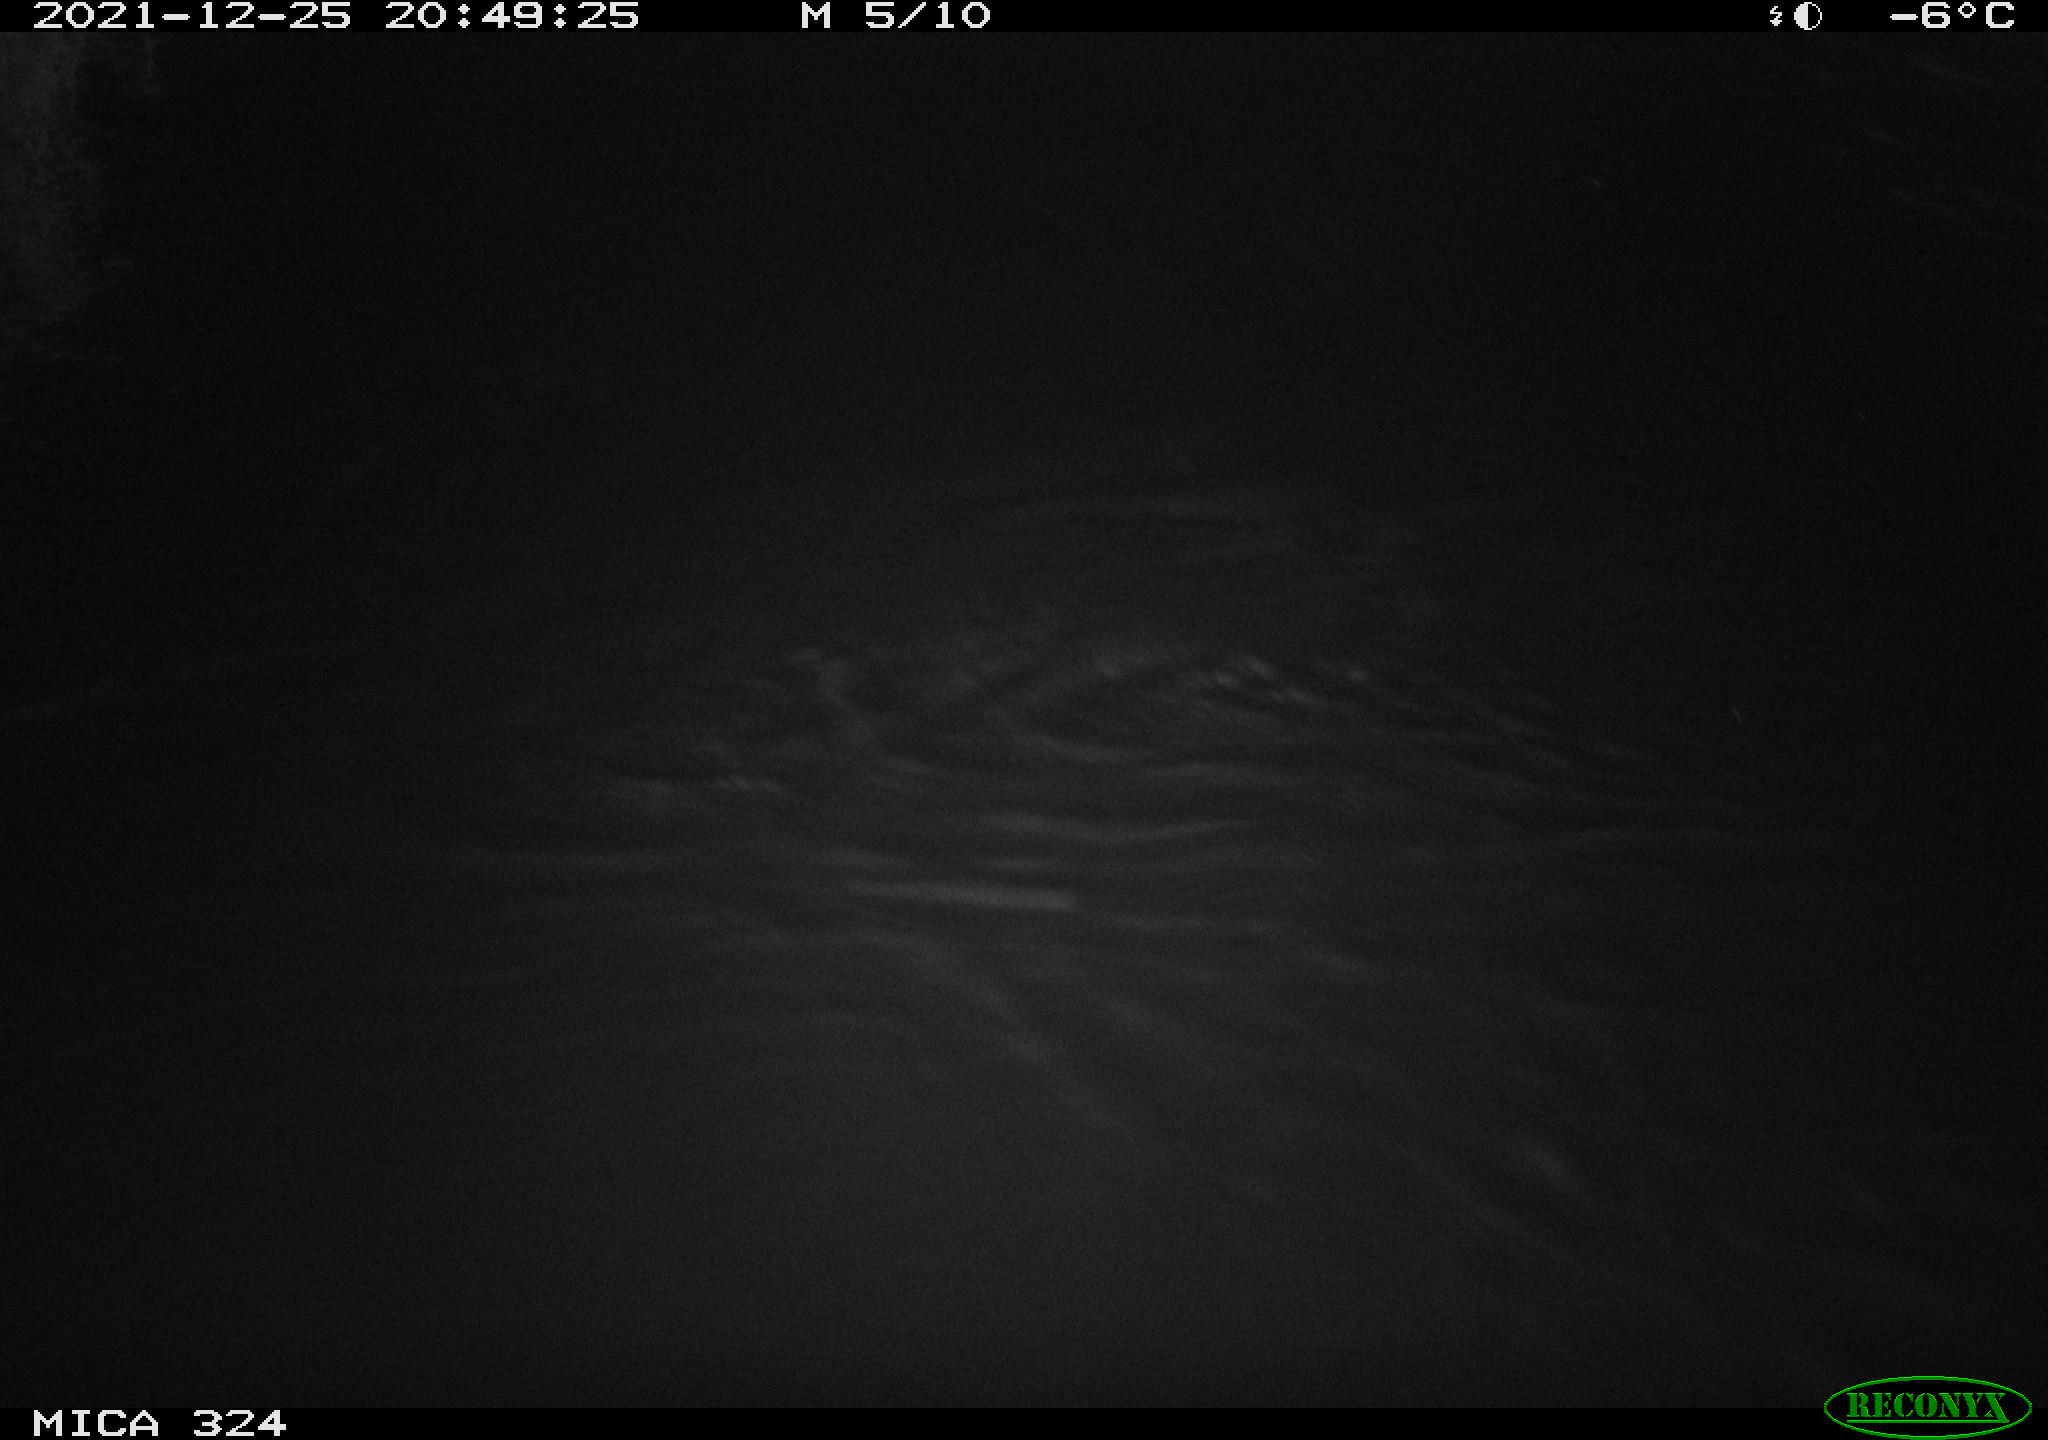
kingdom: Animalia
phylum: Chordata
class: Mammalia
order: Rodentia
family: Cricetidae
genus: Ondatra
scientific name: Ondatra zibethicus
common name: Muskrat
